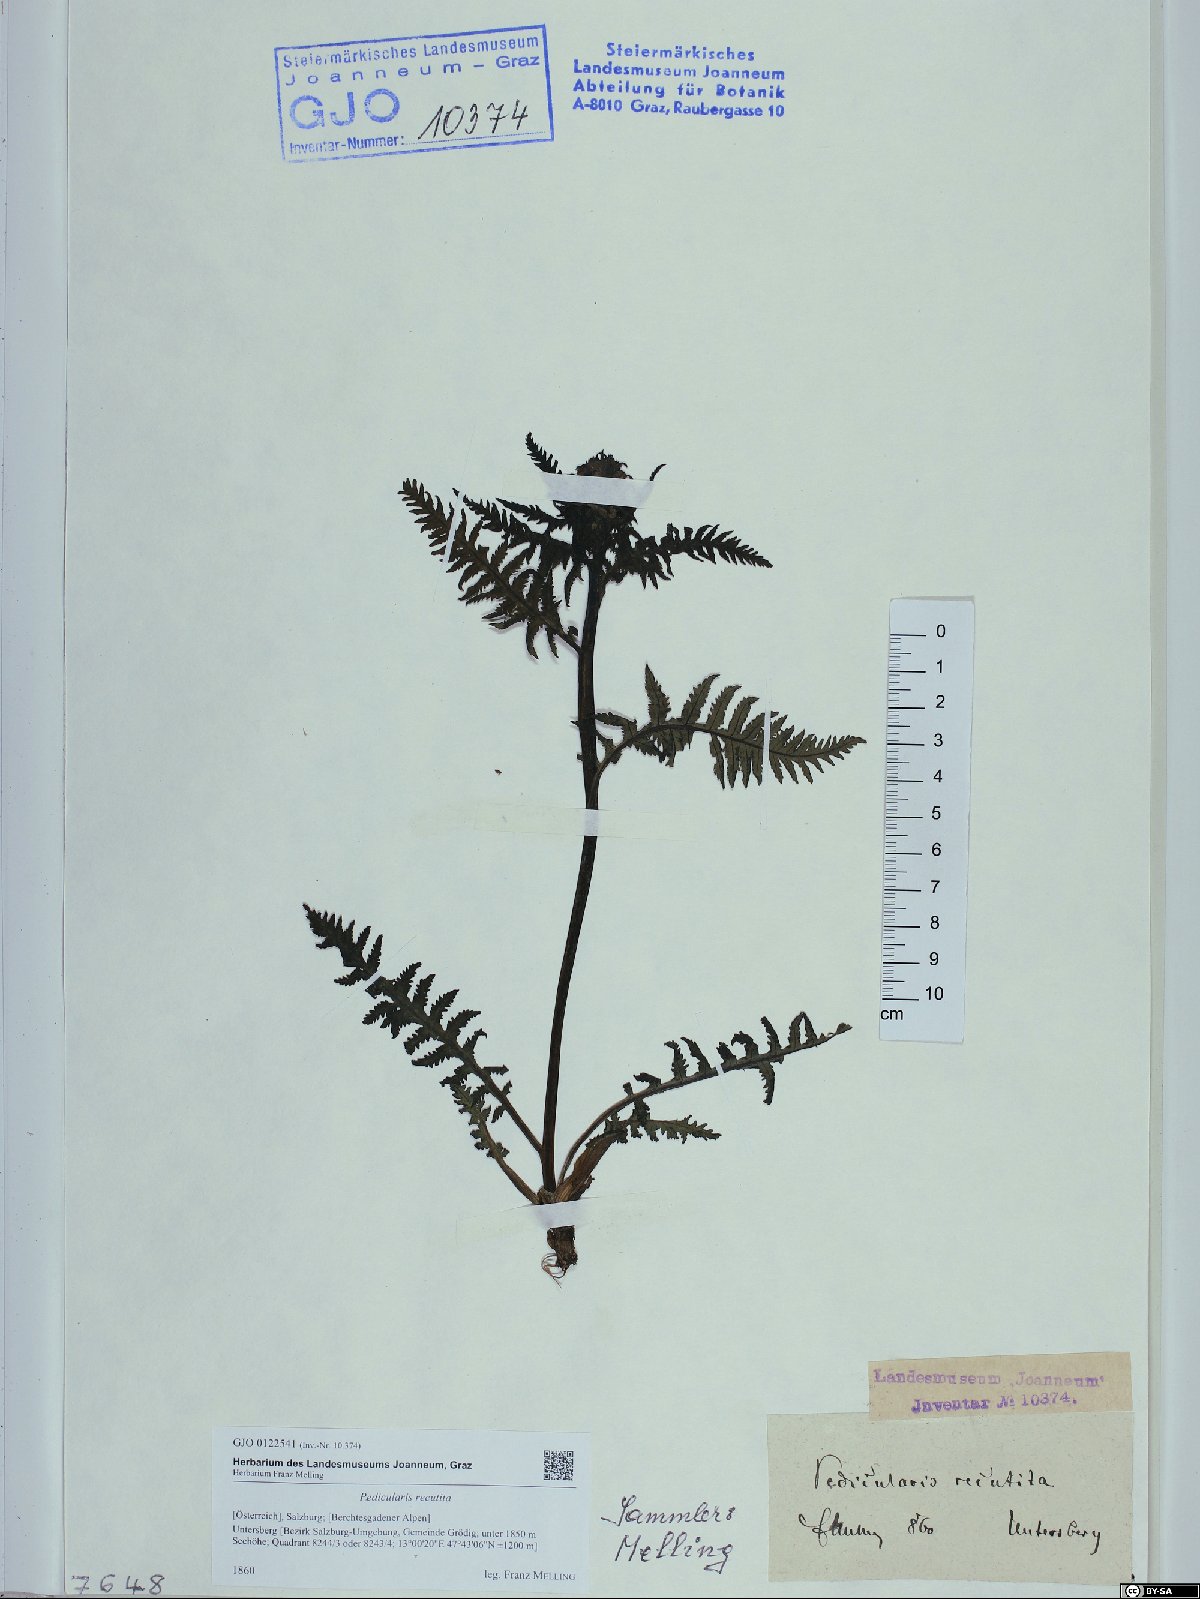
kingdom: Plantae
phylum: Tracheophyta
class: Magnoliopsida
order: Lamiales
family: Orobanchaceae
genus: Pedicularis
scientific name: Pedicularis recutita
